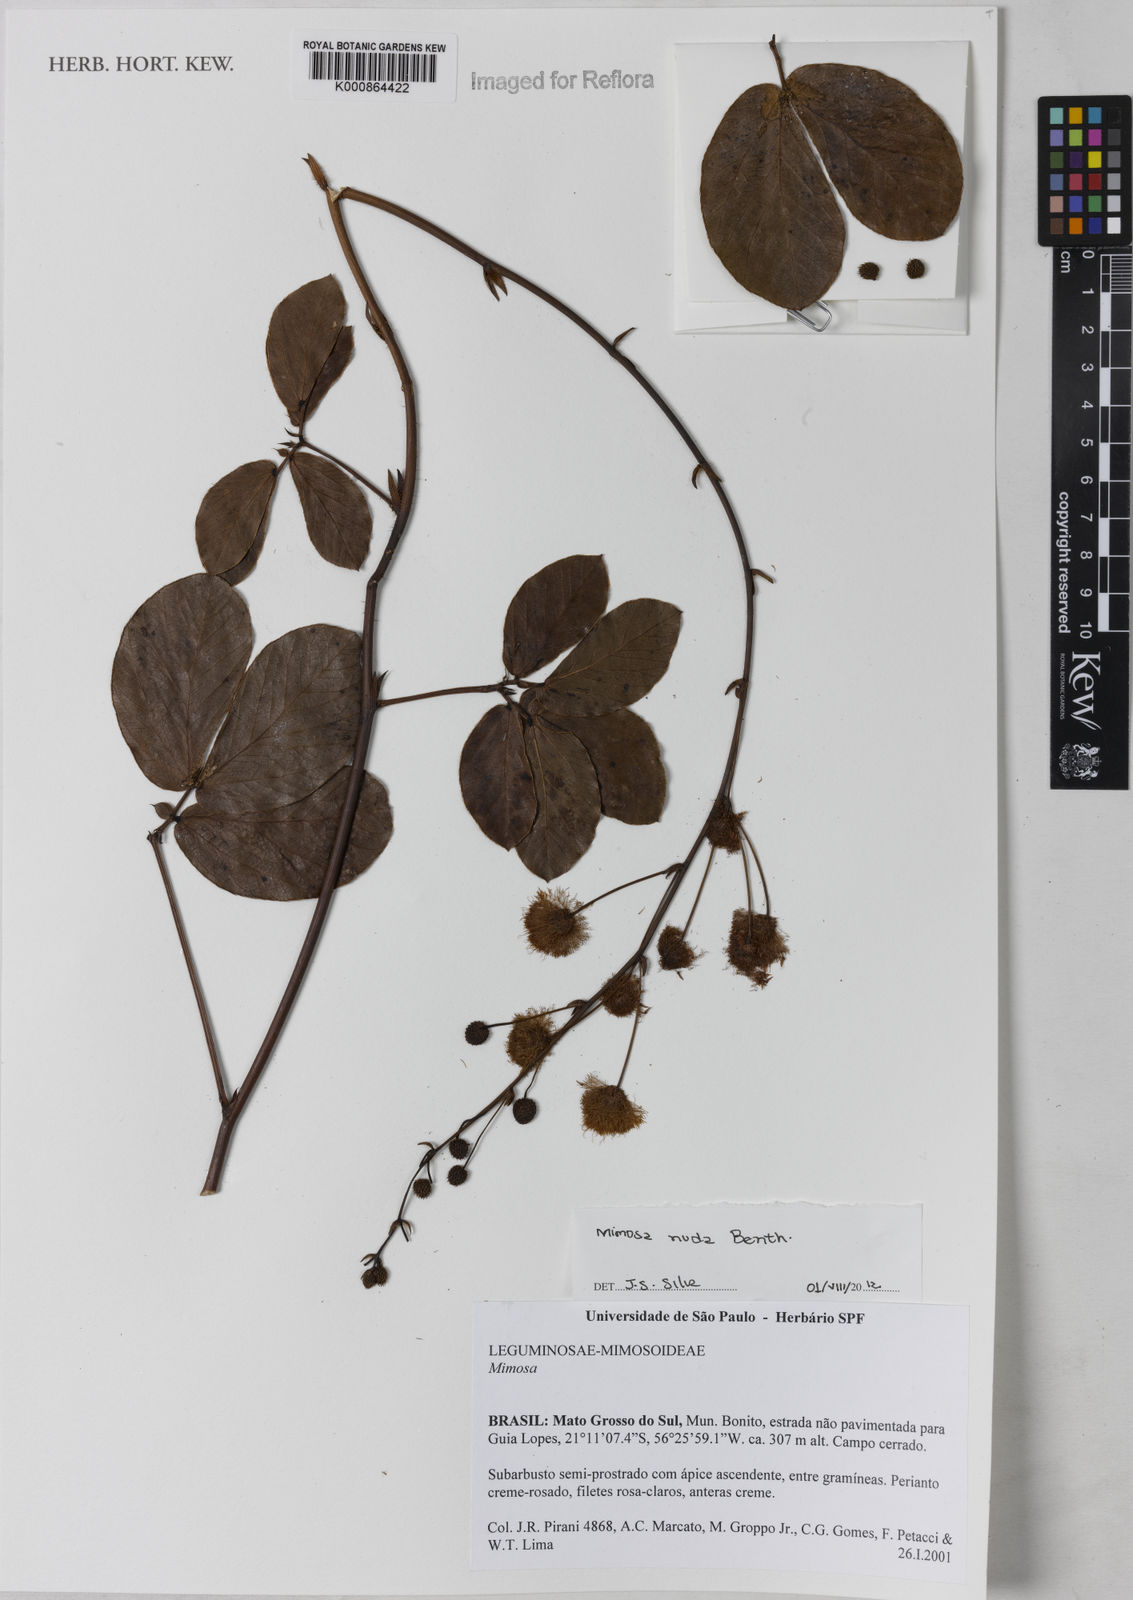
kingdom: Plantae
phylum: Tracheophyta
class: Magnoliopsida
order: Fabales
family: Fabaceae
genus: Mimosa
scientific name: Mimosa debilis
